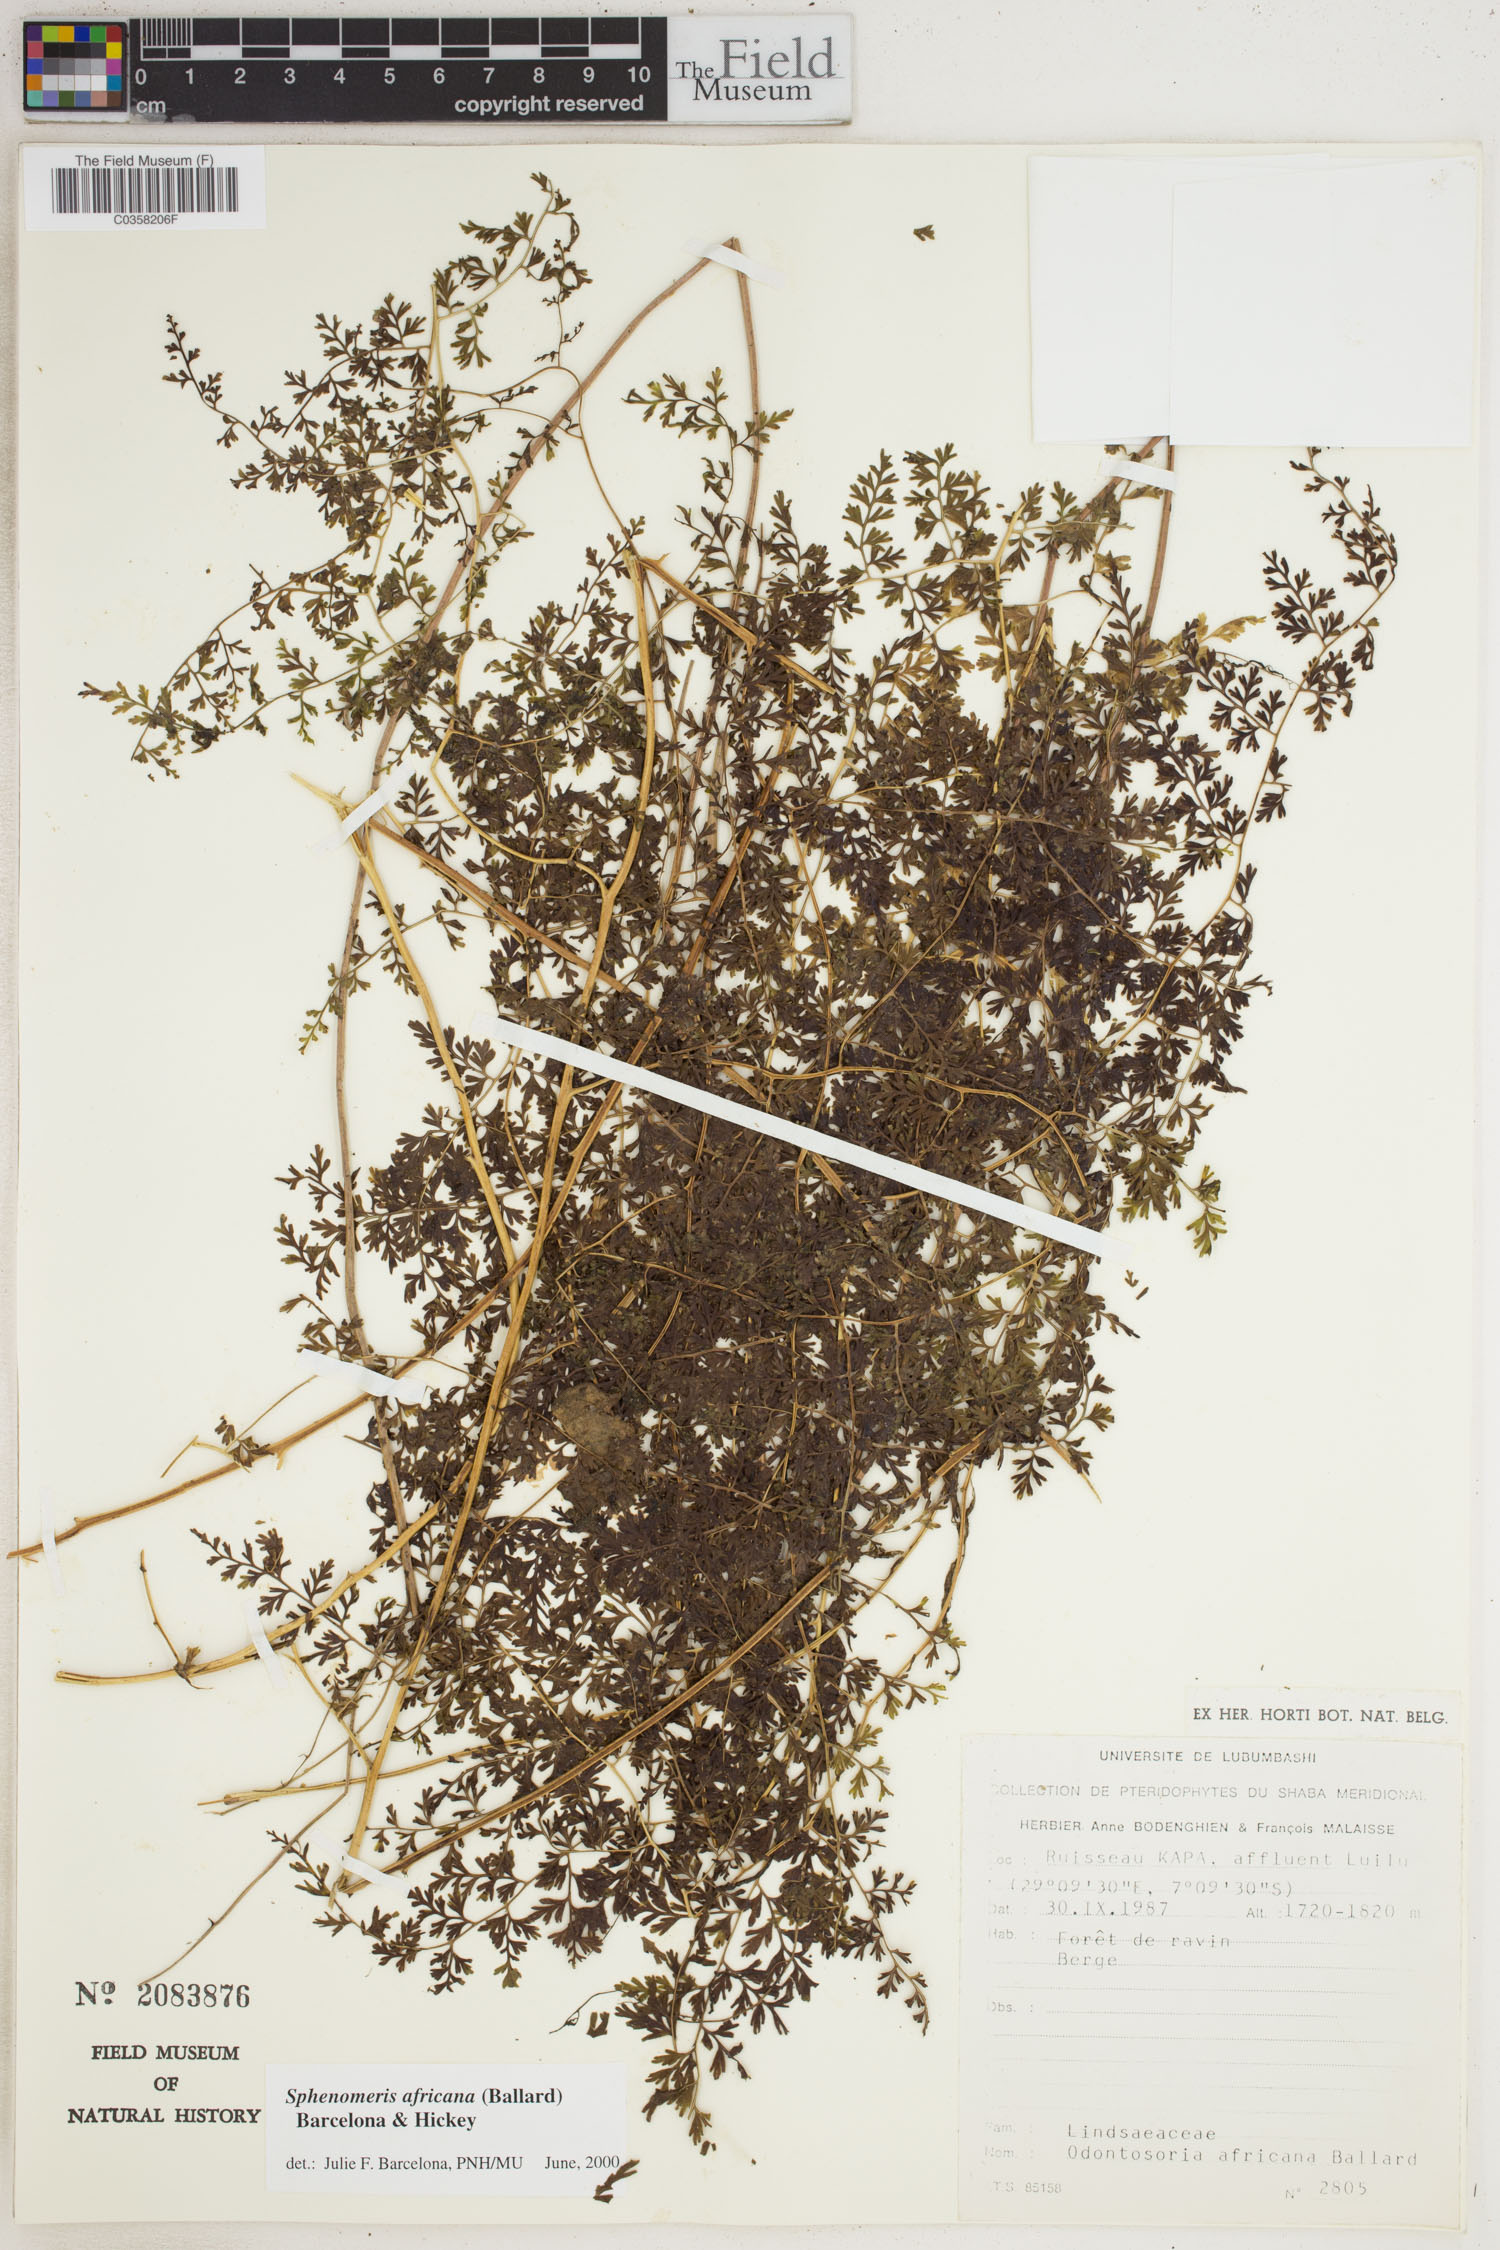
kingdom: Plantae
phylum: Tracheophyta
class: Polypodiopsida
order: Polypodiales
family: Lindsaeaceae
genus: Odontosoria
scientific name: Odontosoria africana
